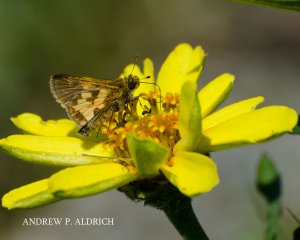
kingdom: Animalia
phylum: Arthropoda
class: Insecta
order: Lepidoptera
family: Hesperiidae
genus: Polites
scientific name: Polites coras
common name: Peck's Skipper
